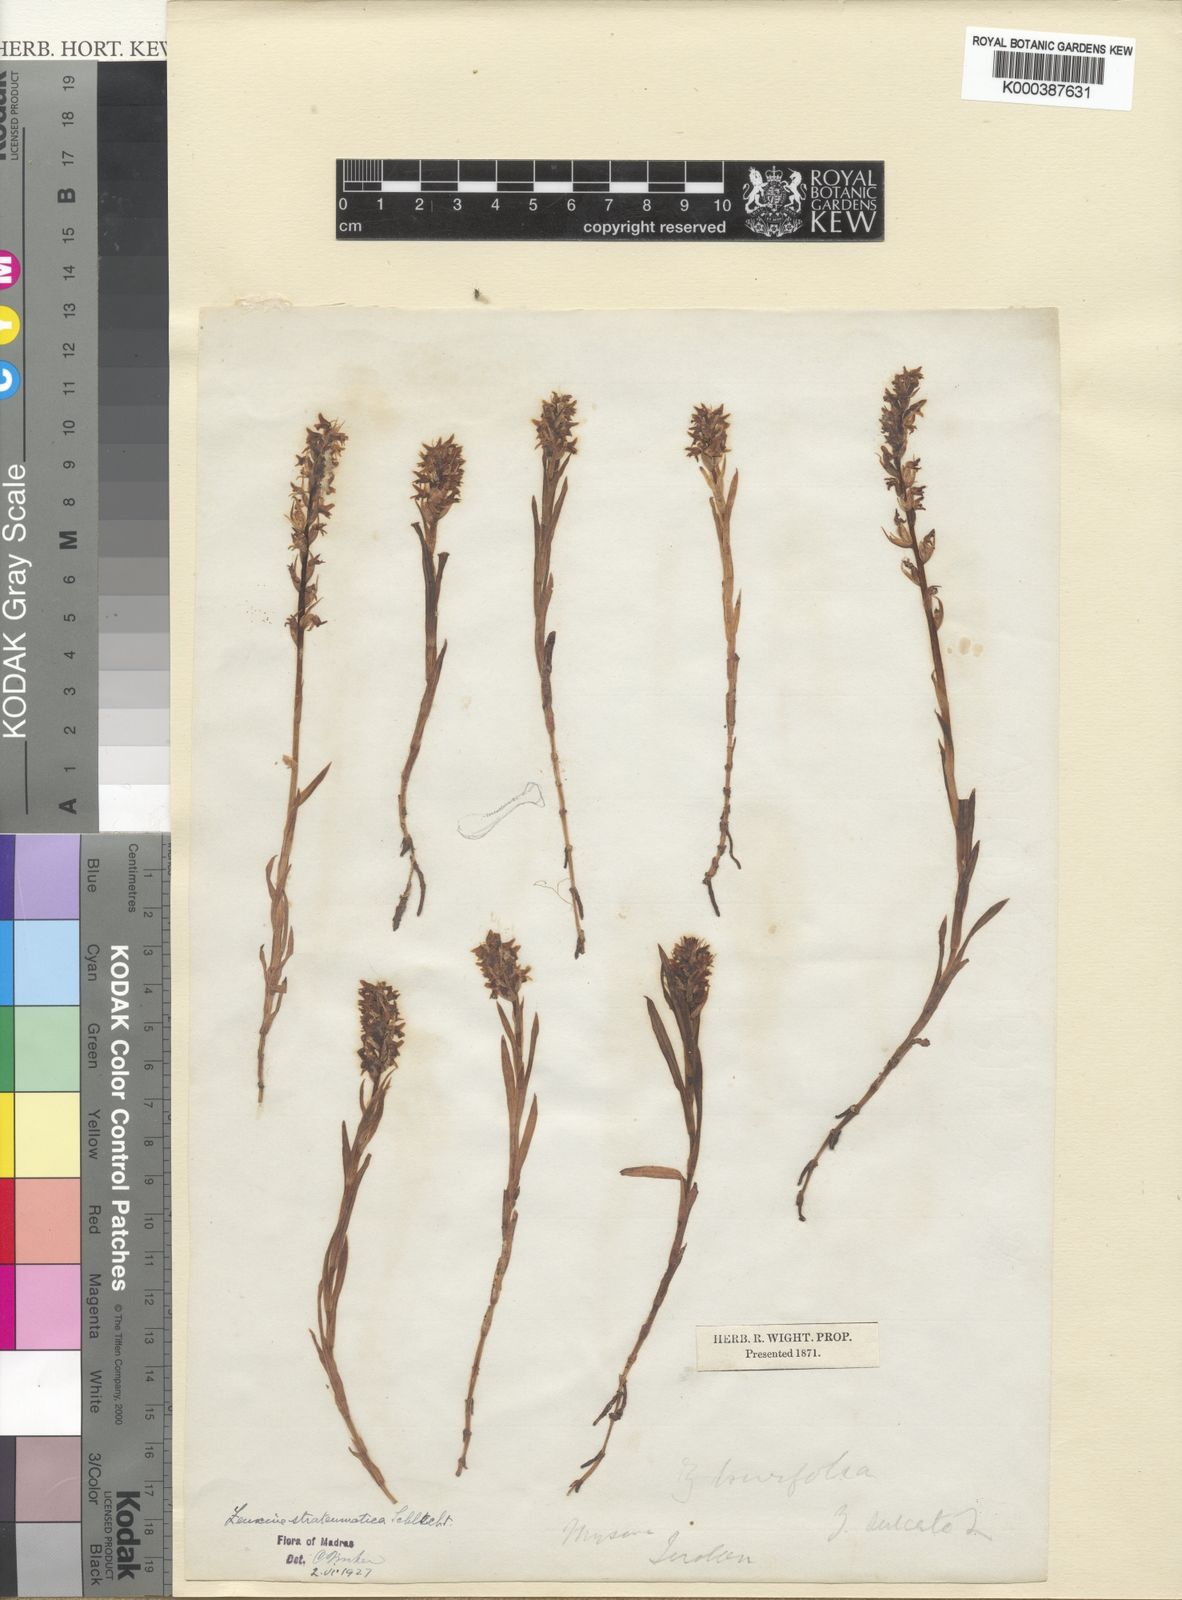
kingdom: Plantae
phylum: Tracheophyta
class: Liliopsida
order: Asparagales
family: Orchidaceae
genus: Zeuxine
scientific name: Zeuxine strateumatica
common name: Soldier's orchid
